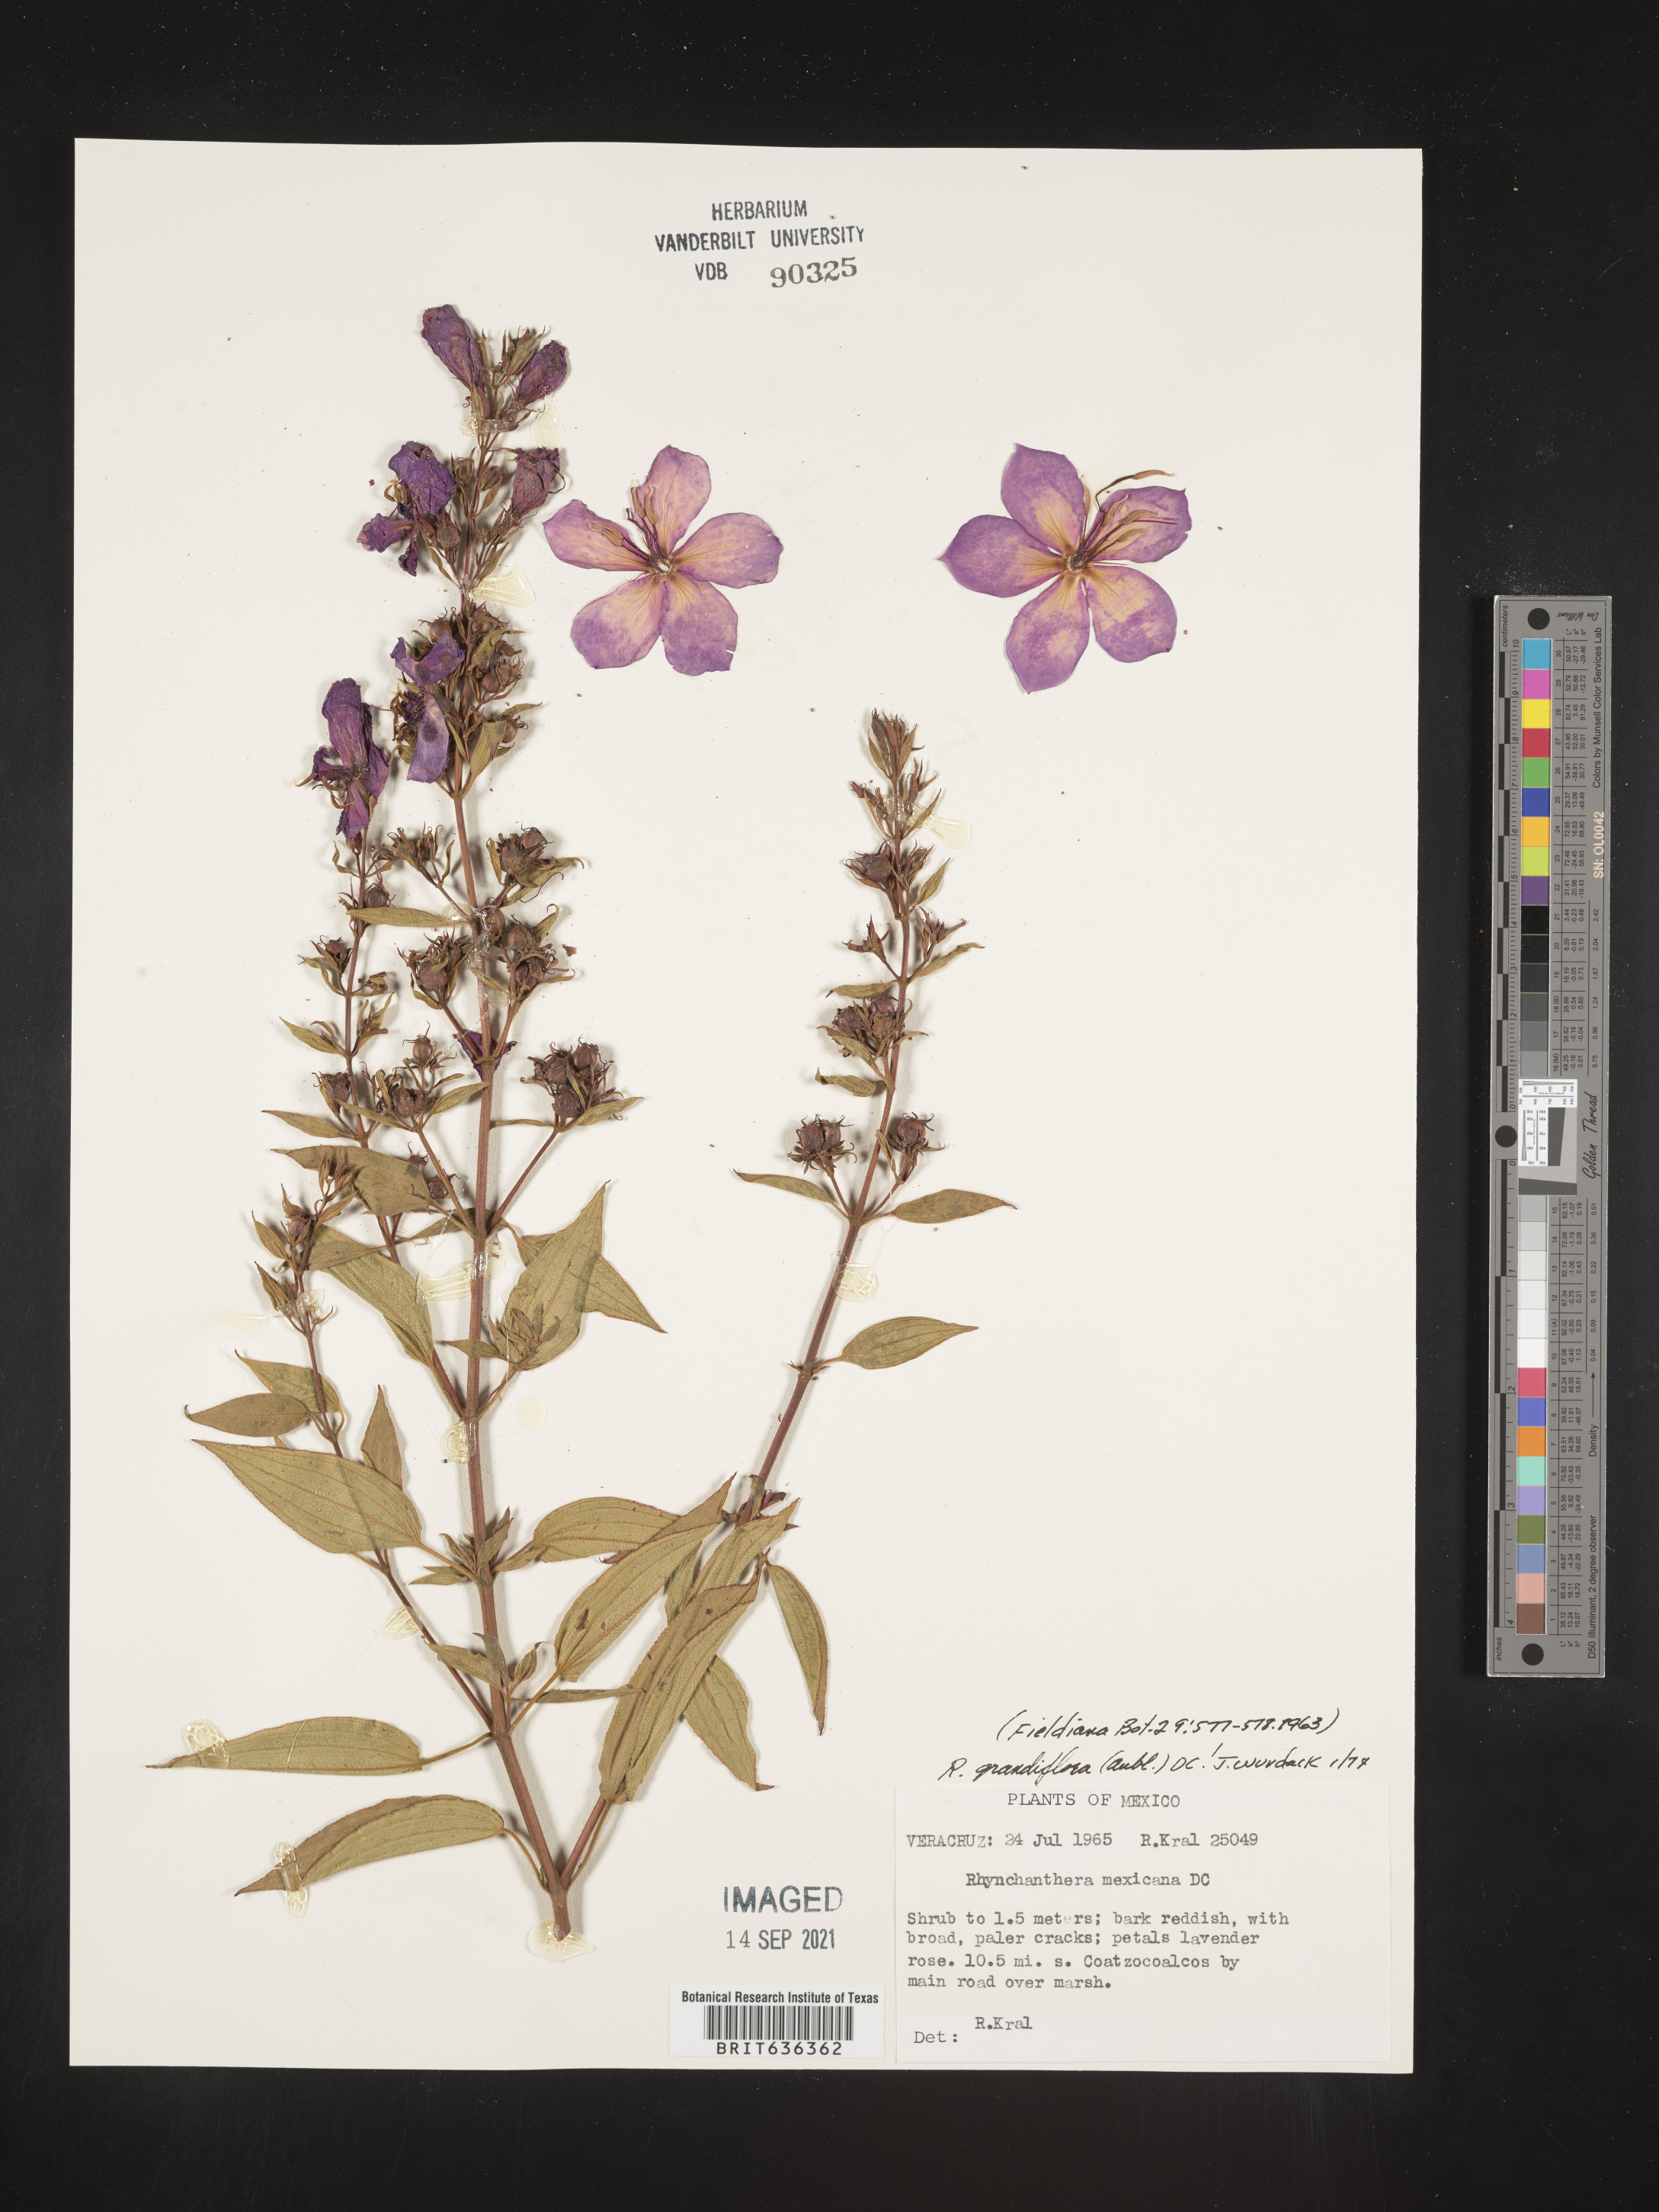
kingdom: Plantae
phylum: Tracheophyta
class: Magnoliopsida
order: Myrtales
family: Melastomataceae
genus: Rhynchanthera
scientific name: Rhynchanthera
